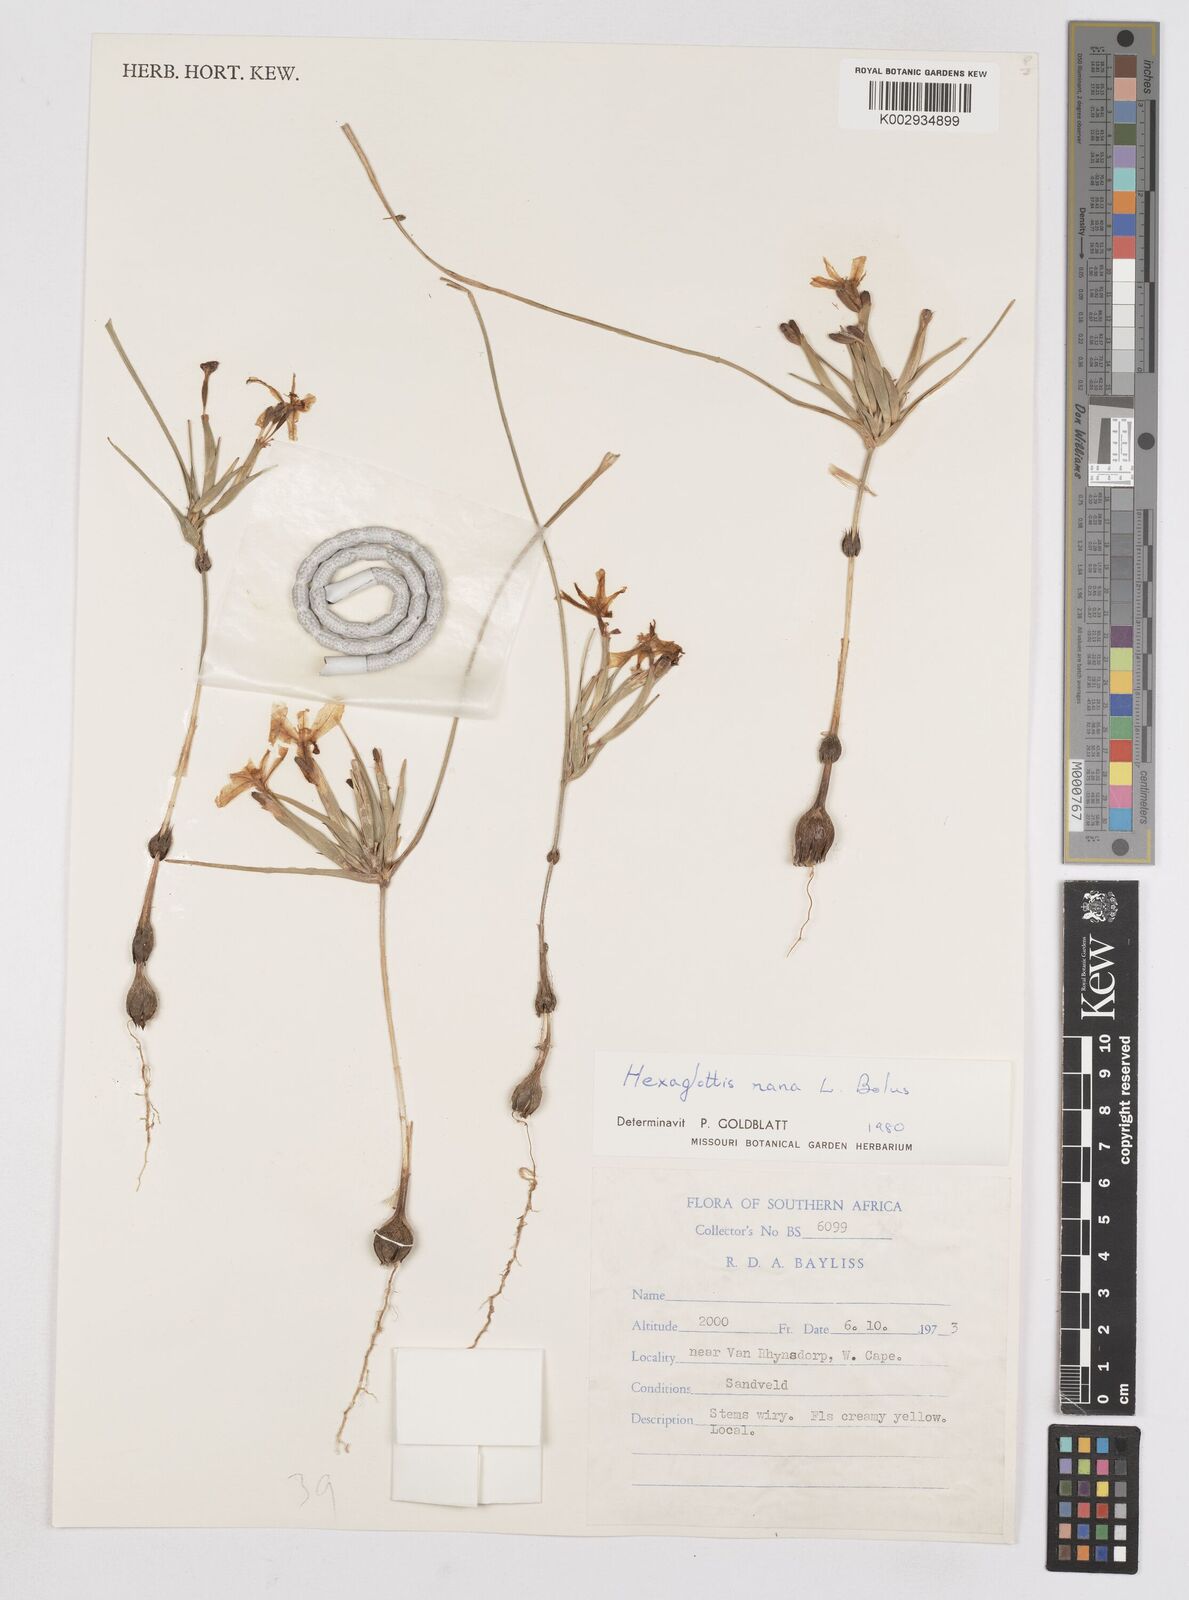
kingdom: Plantae
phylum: Tracheophyta
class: Liliopsida
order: Asparagales
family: Iridaceae
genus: Moraea
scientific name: Moraea nana
